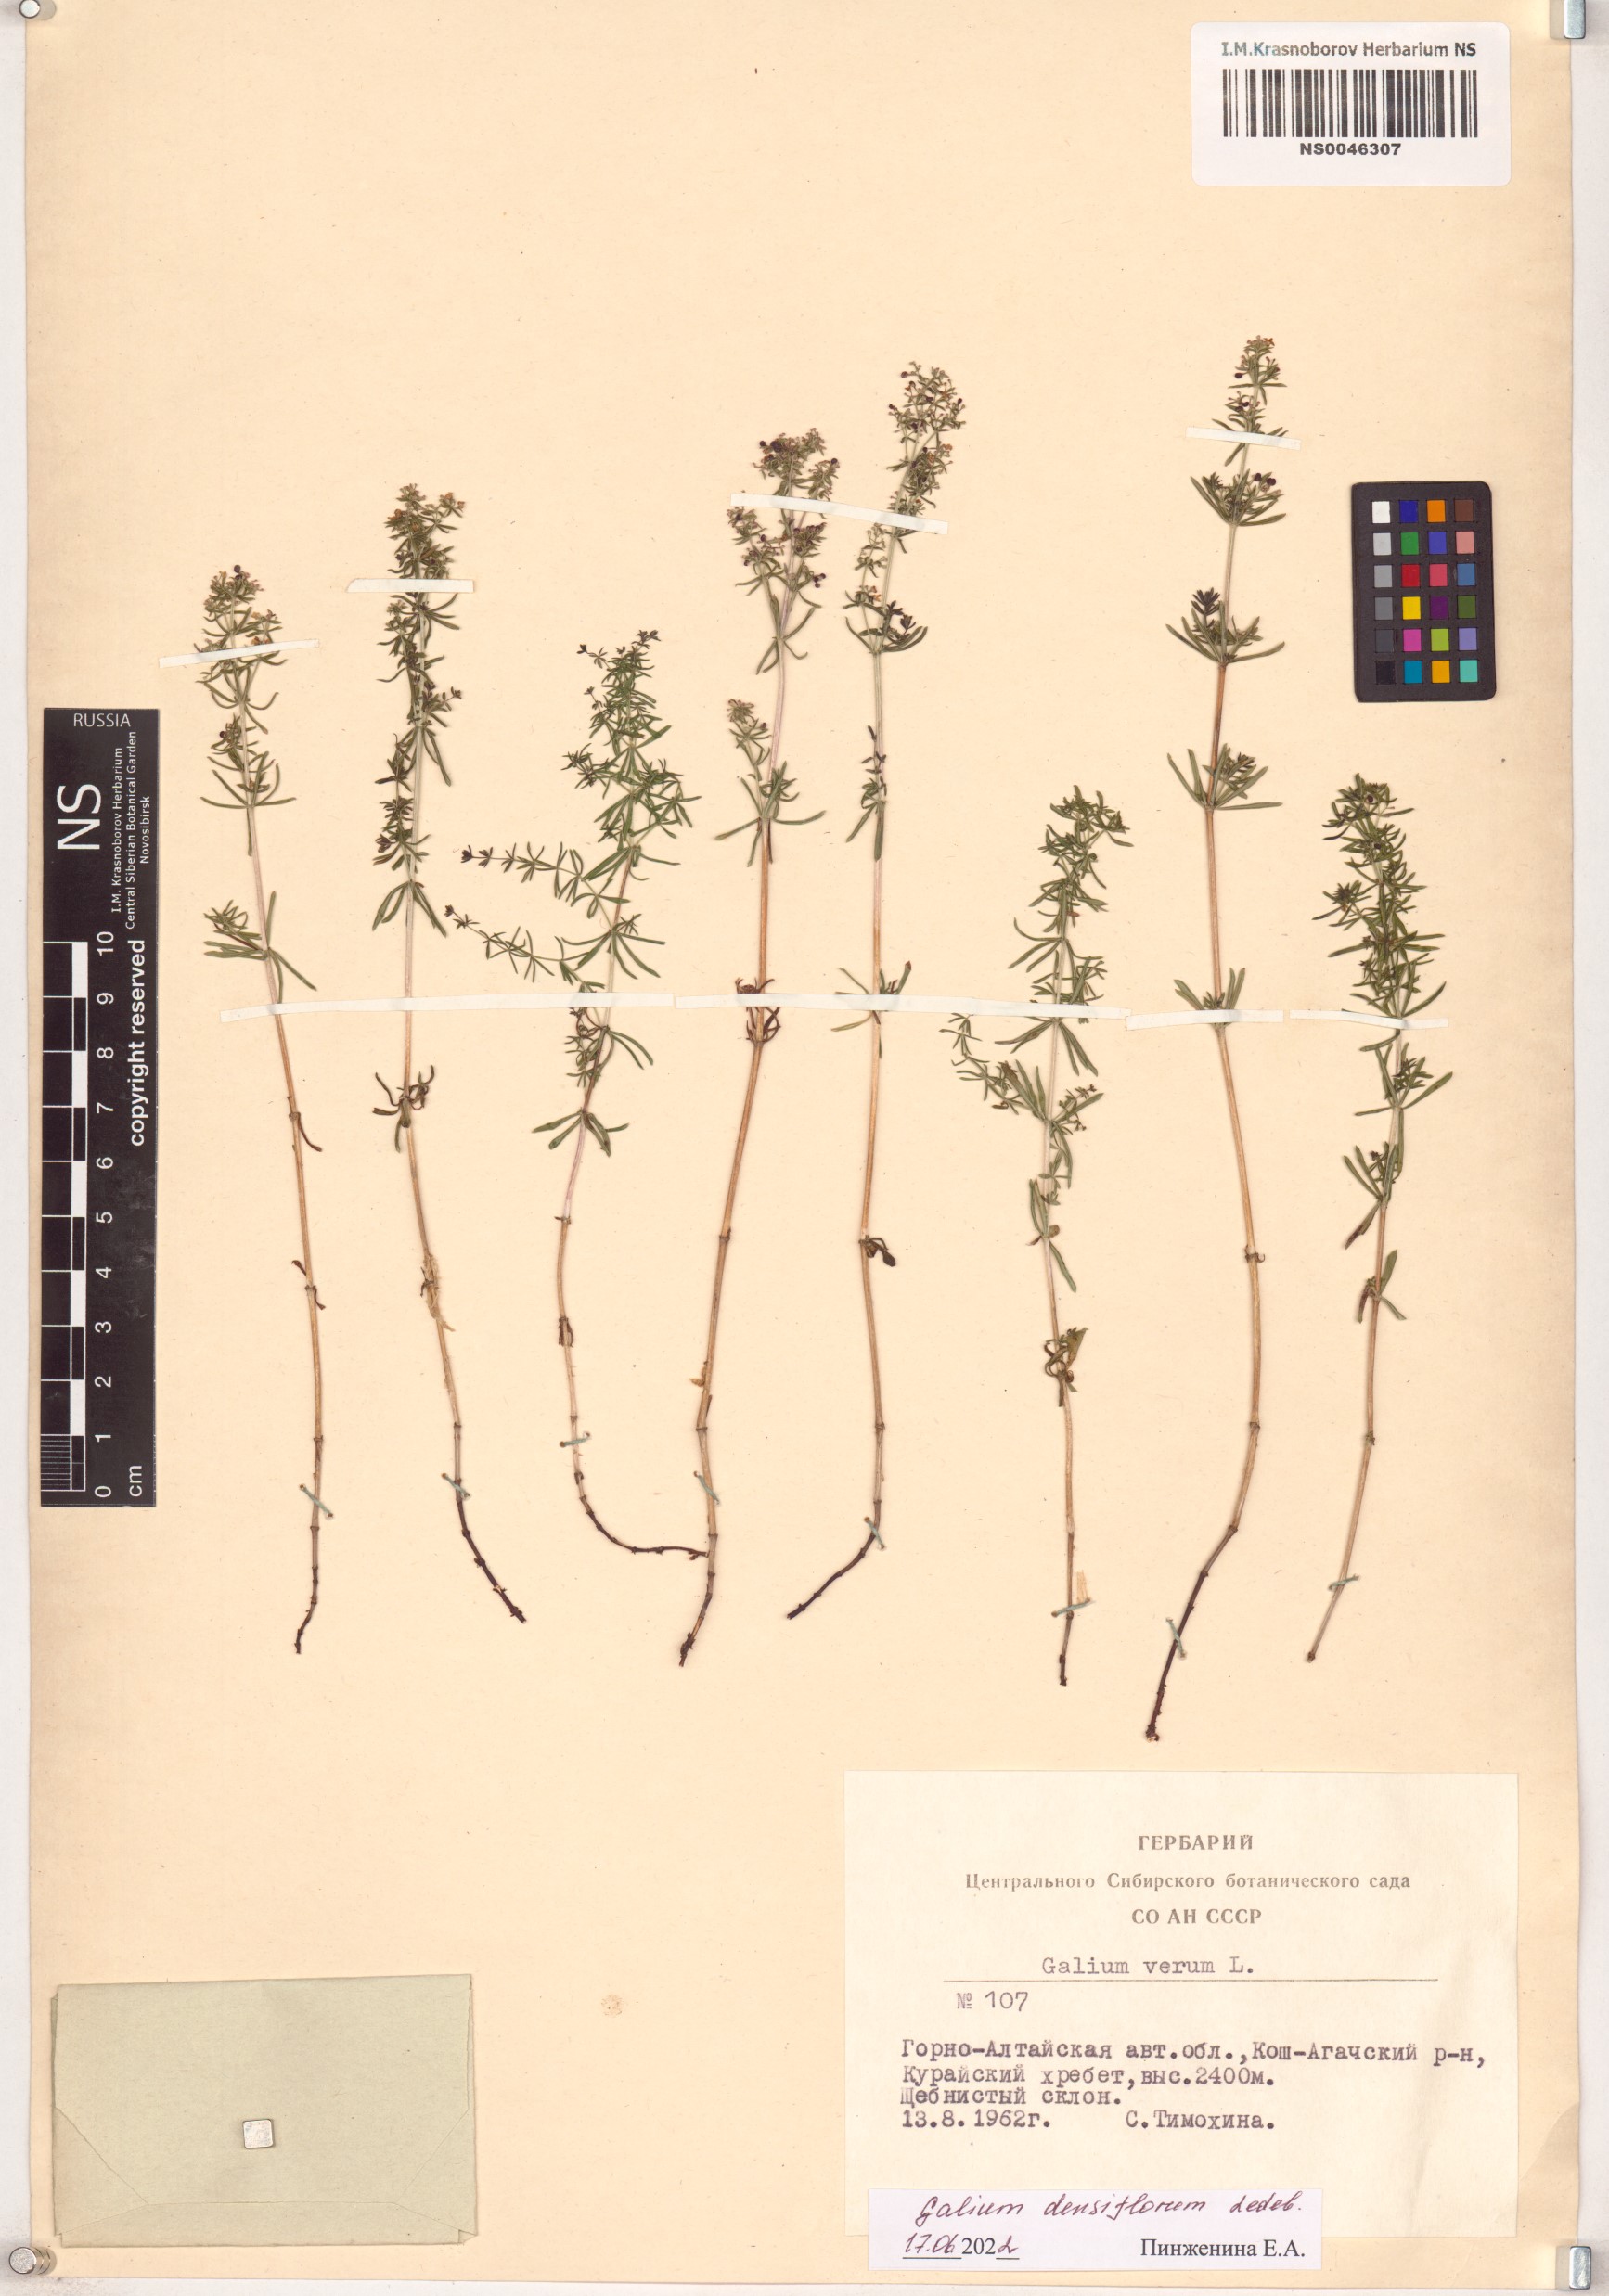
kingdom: Plantae
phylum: Tracheophyta
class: Magnoliopsida
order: Gentianales
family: Rubiaceae
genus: Galium
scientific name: Galium densiflorum
